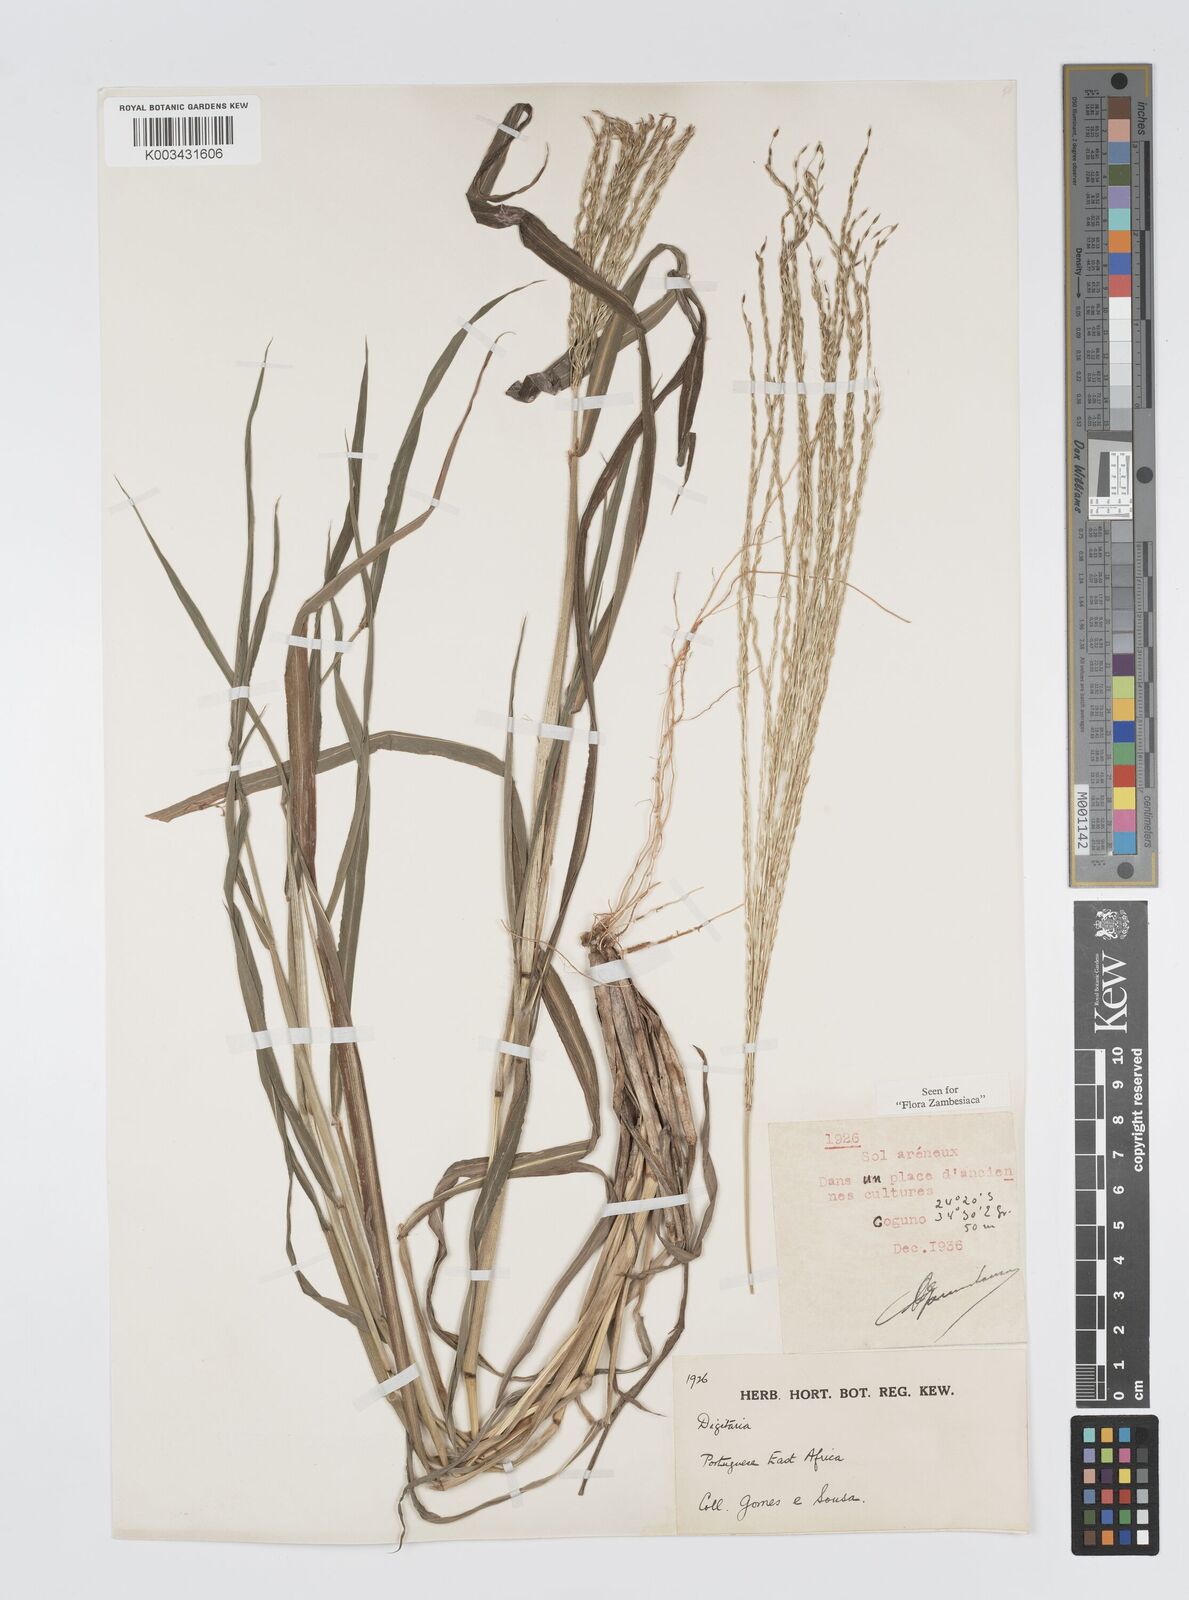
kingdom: Plantae
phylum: Tracheophyta
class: Liliopsida
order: Poales
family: Poaceae
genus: Digitaria
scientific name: Digitaria gymnostachys
